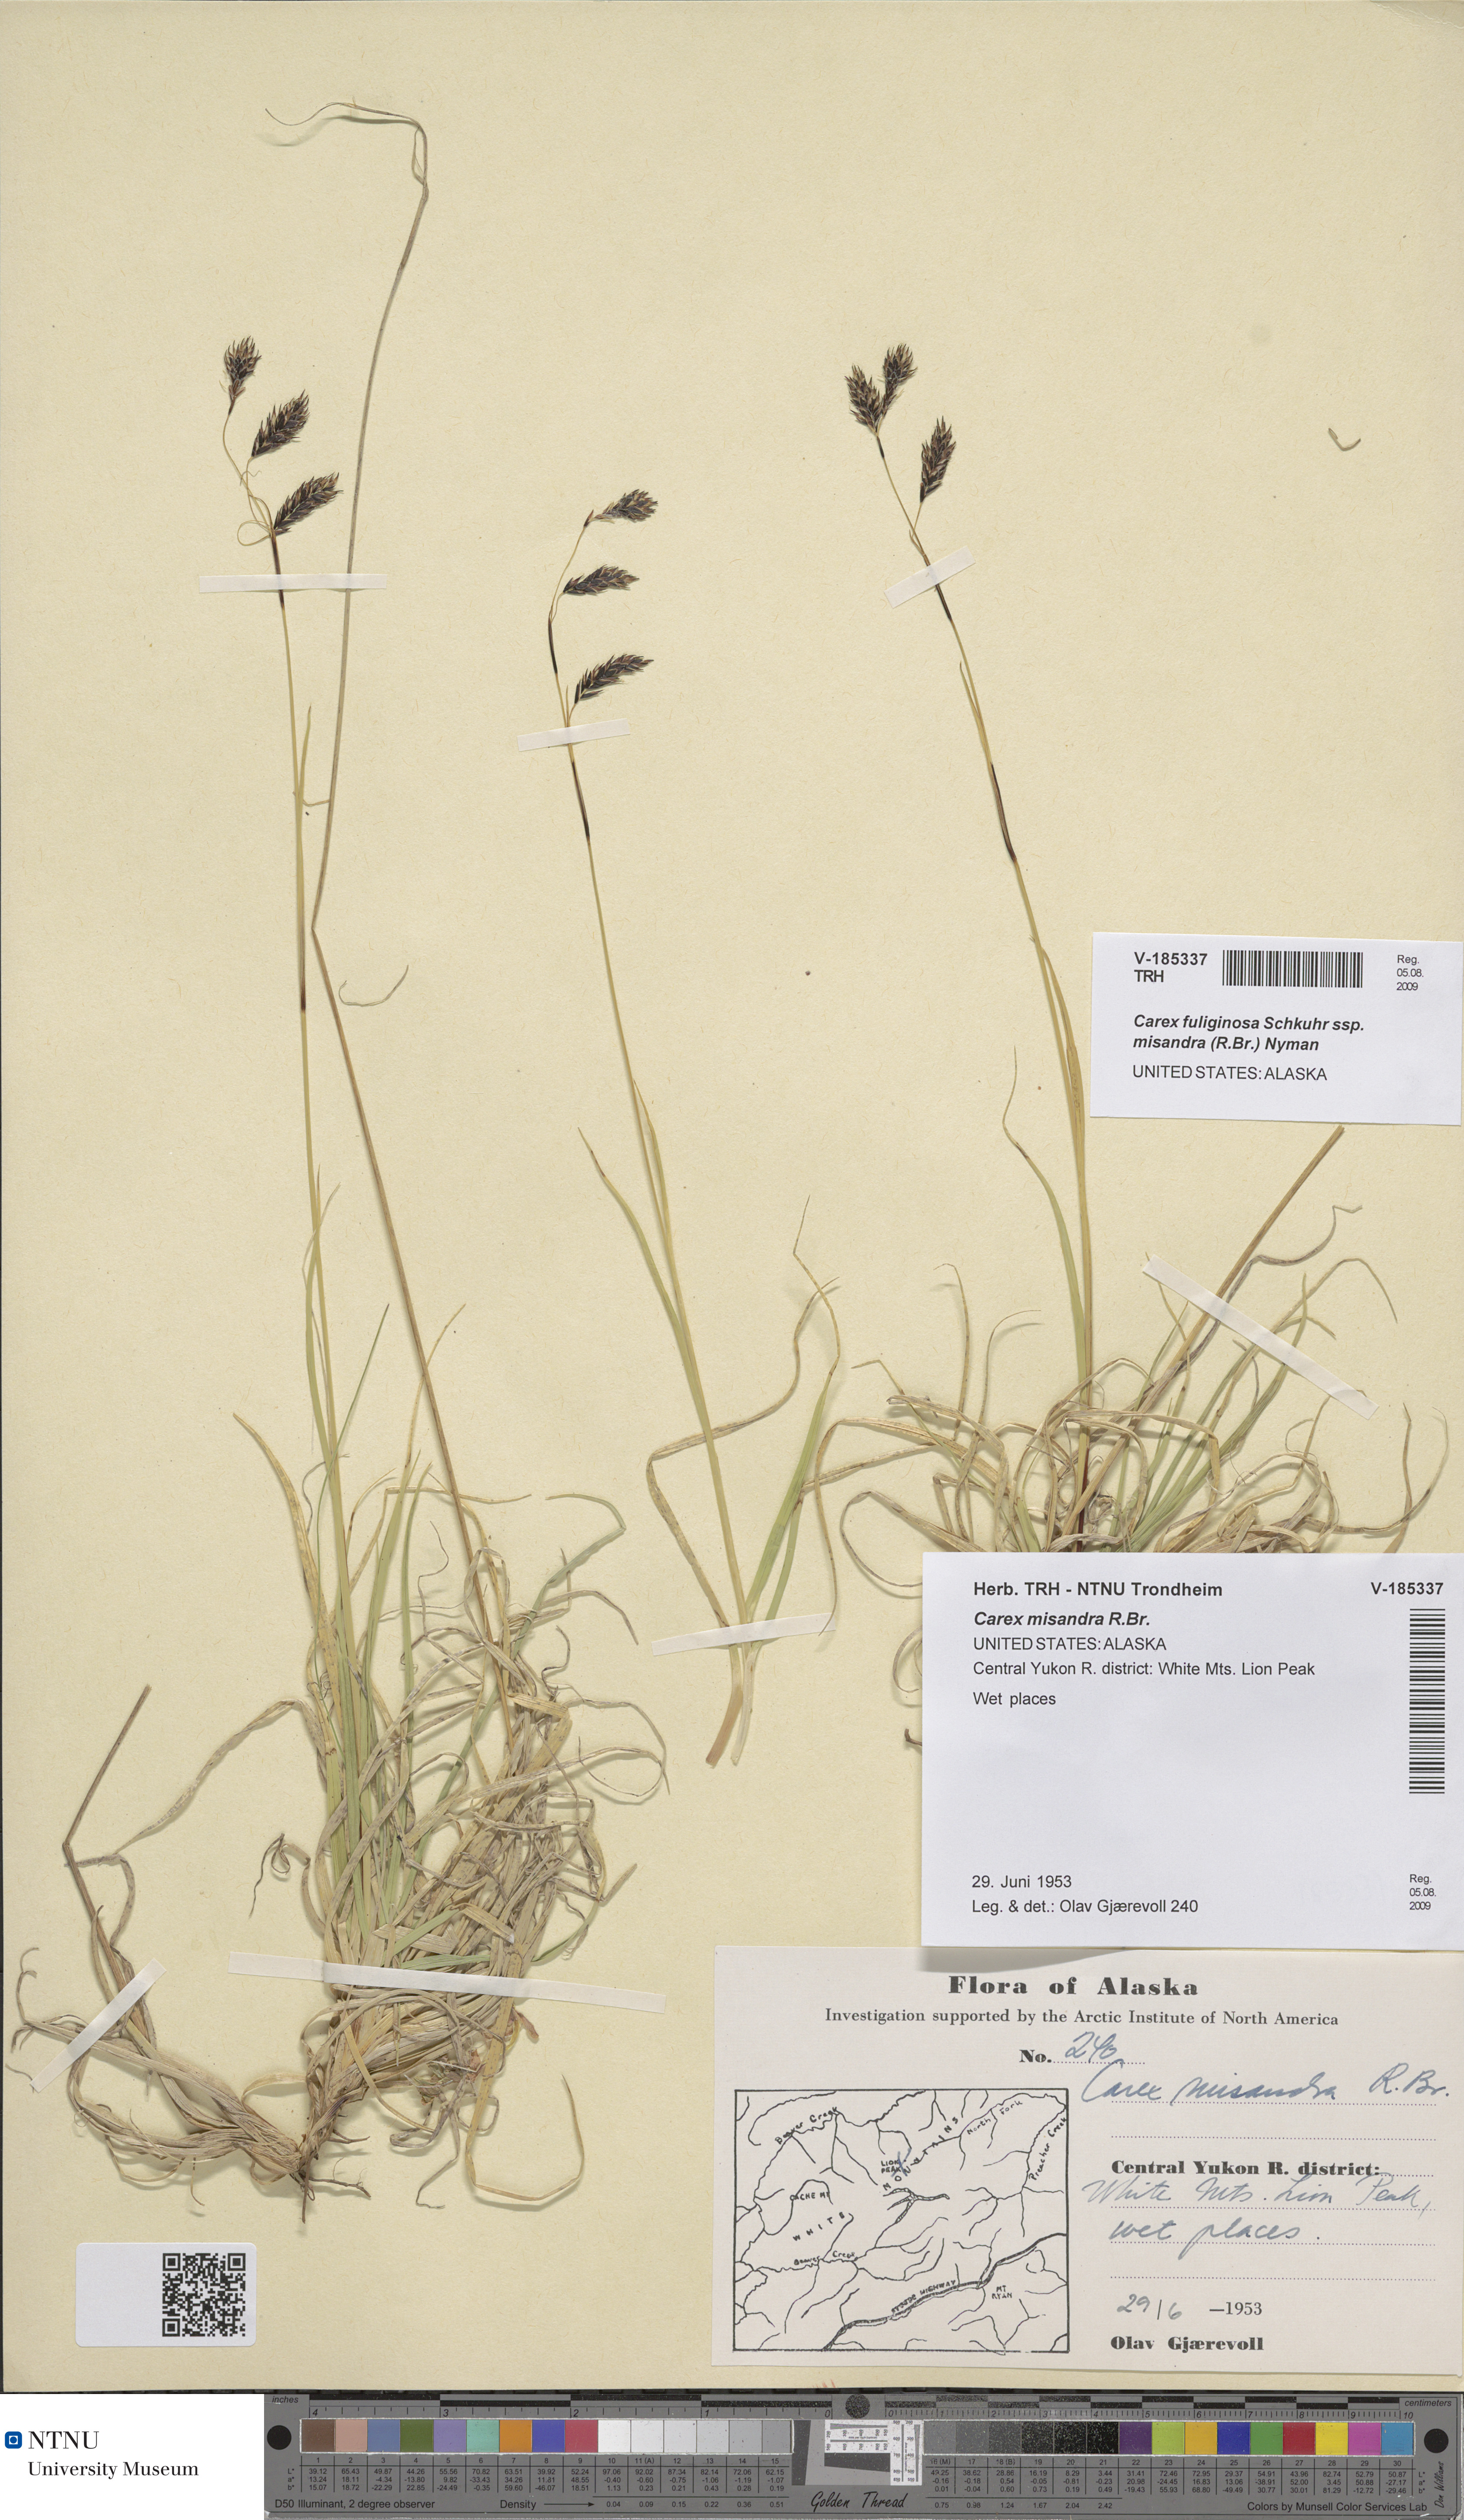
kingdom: Plantae
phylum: Tracheophyta
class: Liliopsida
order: Poales
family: Cyperaceae
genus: Carex
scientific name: Carex fuliginosa
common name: Few-flowered sedge
